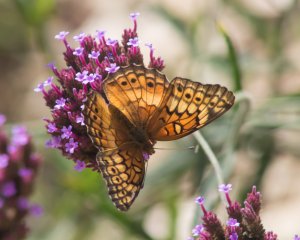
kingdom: Animalia
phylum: Arthropoda
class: Insecta
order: Lepidoptera
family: Nymphalidae
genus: Euptoieta
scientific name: Euptoieta claudia
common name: Variegated Fritillary
